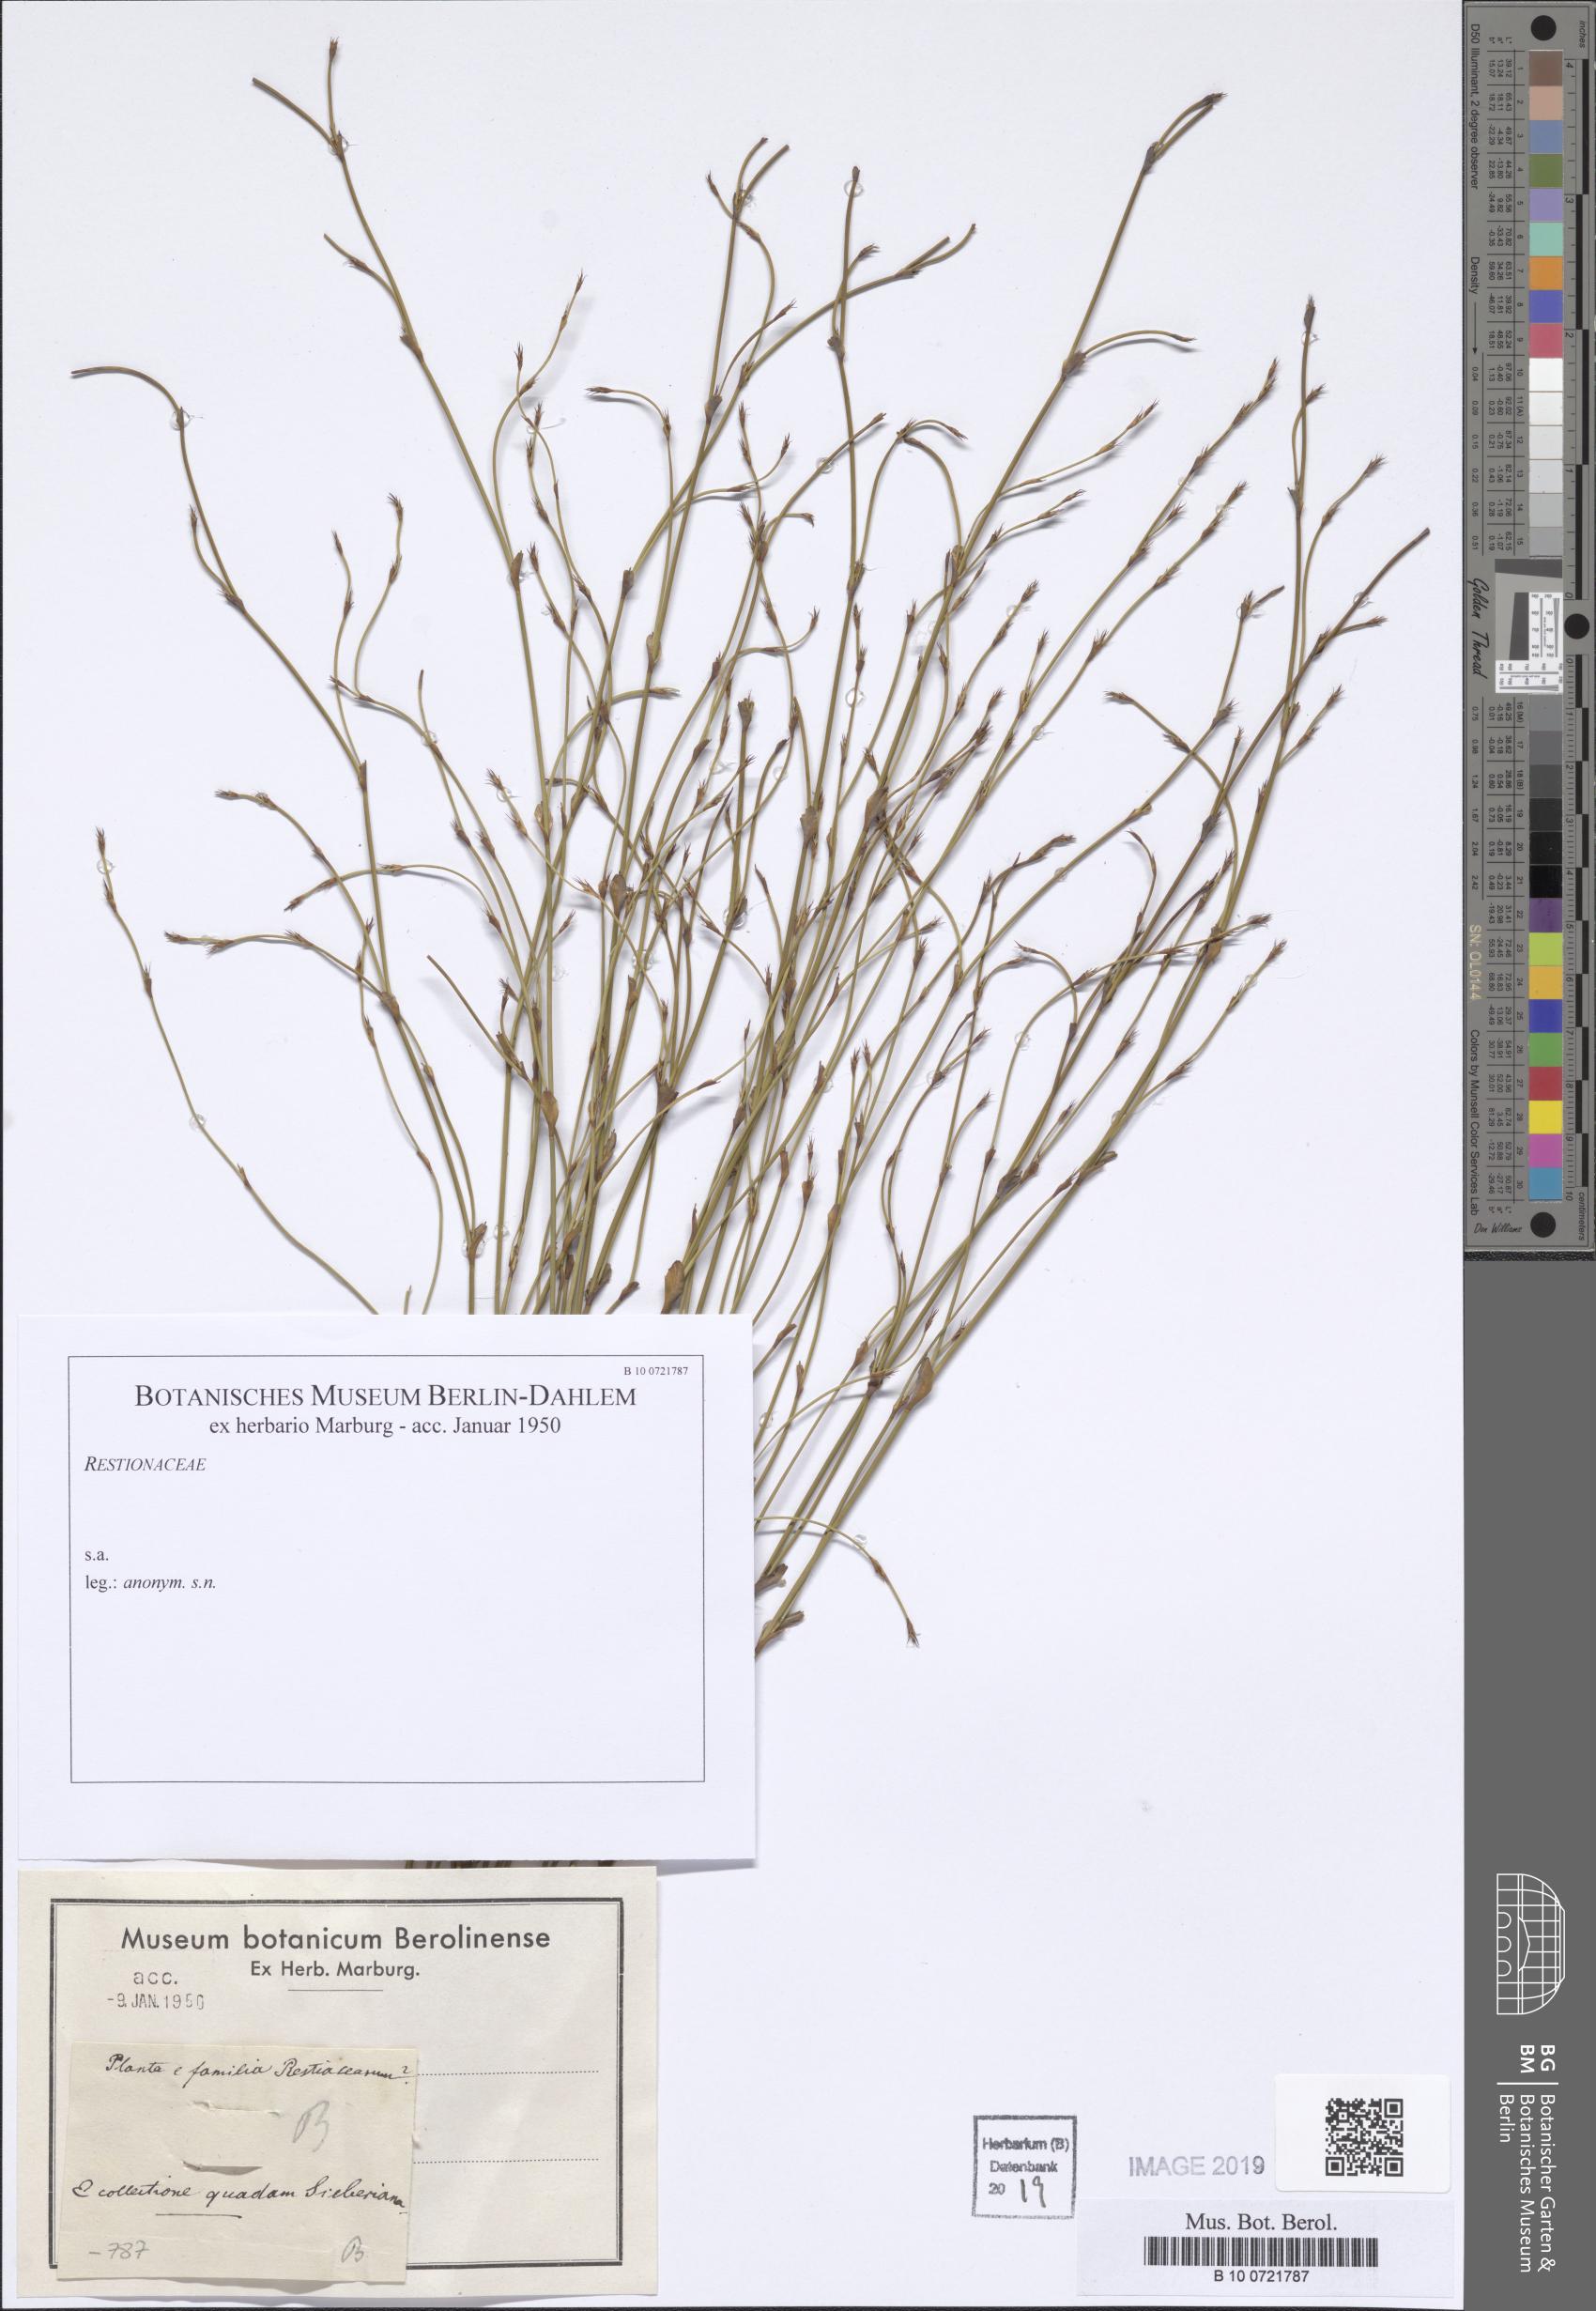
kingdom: Plantae
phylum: Tracheophyta
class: Liliopsida
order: Poales
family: Restionaceae
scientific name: Restionaceae
